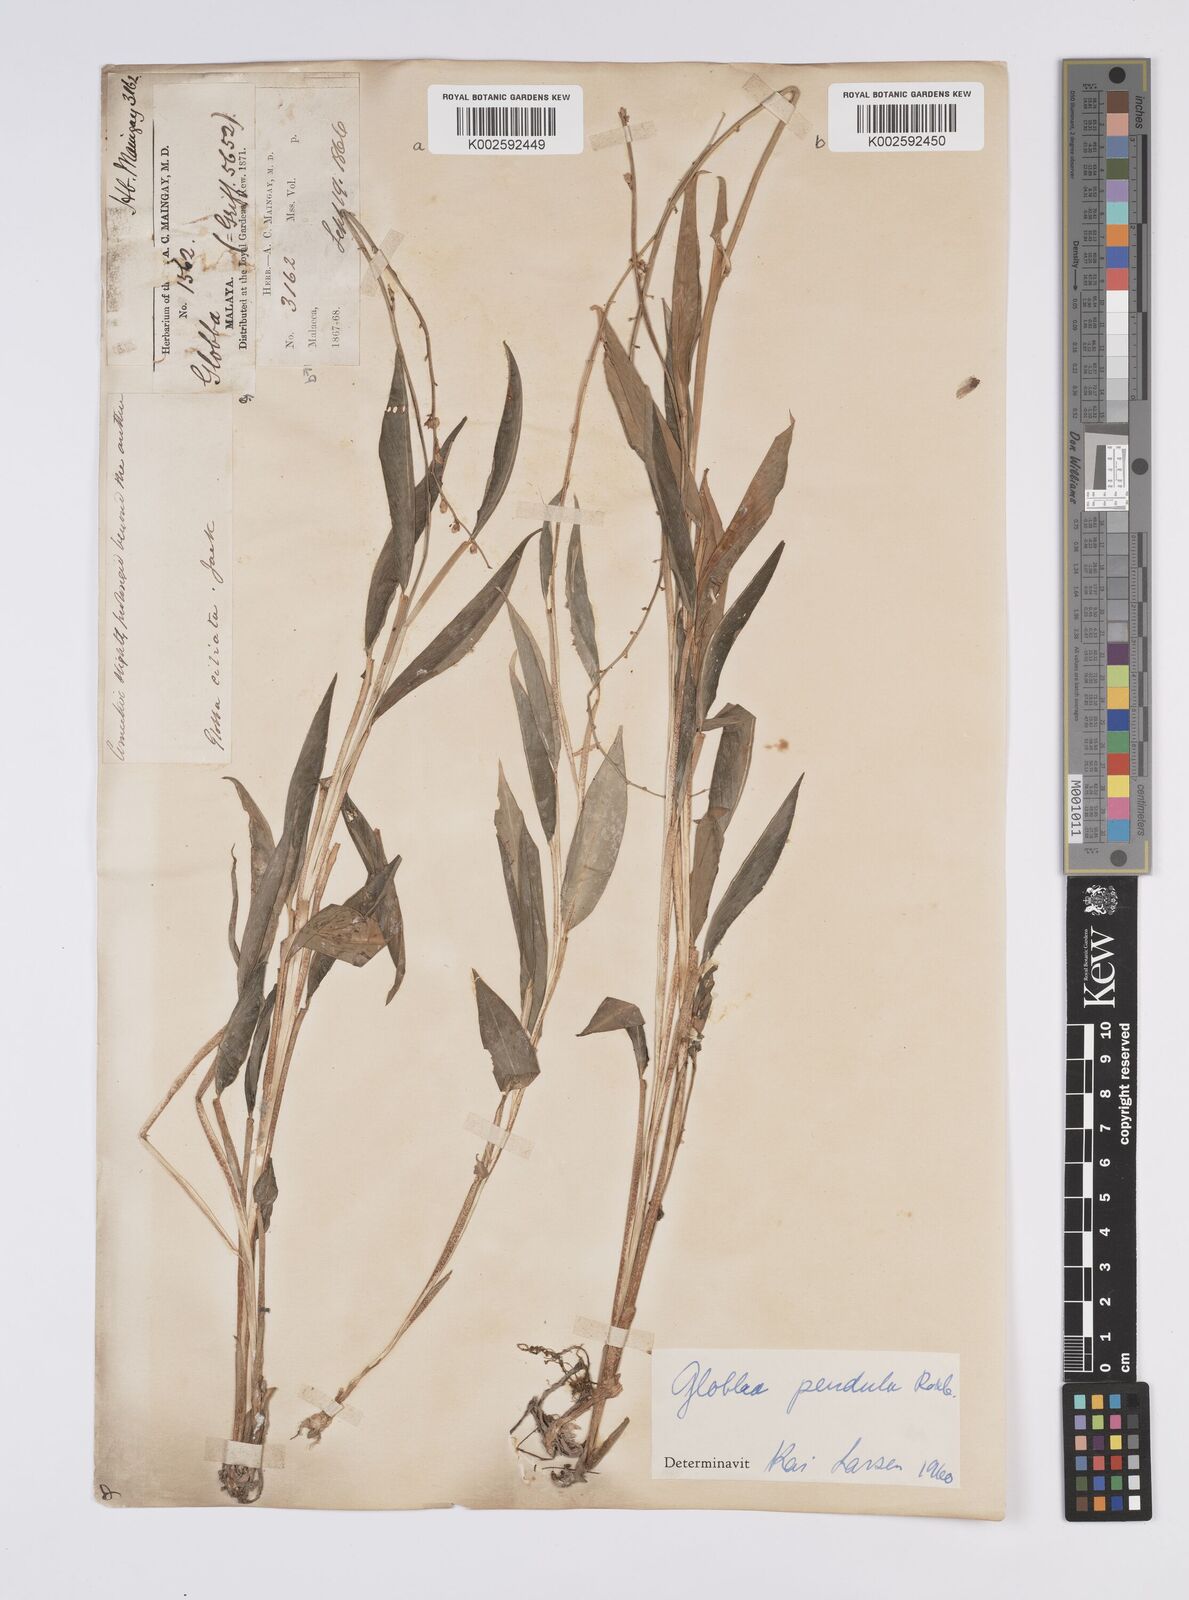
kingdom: Plantae
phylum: Tracheophyta
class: Liliopsida
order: Zingiberales
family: Zingiberaceae
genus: Globba
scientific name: Globba pendula
